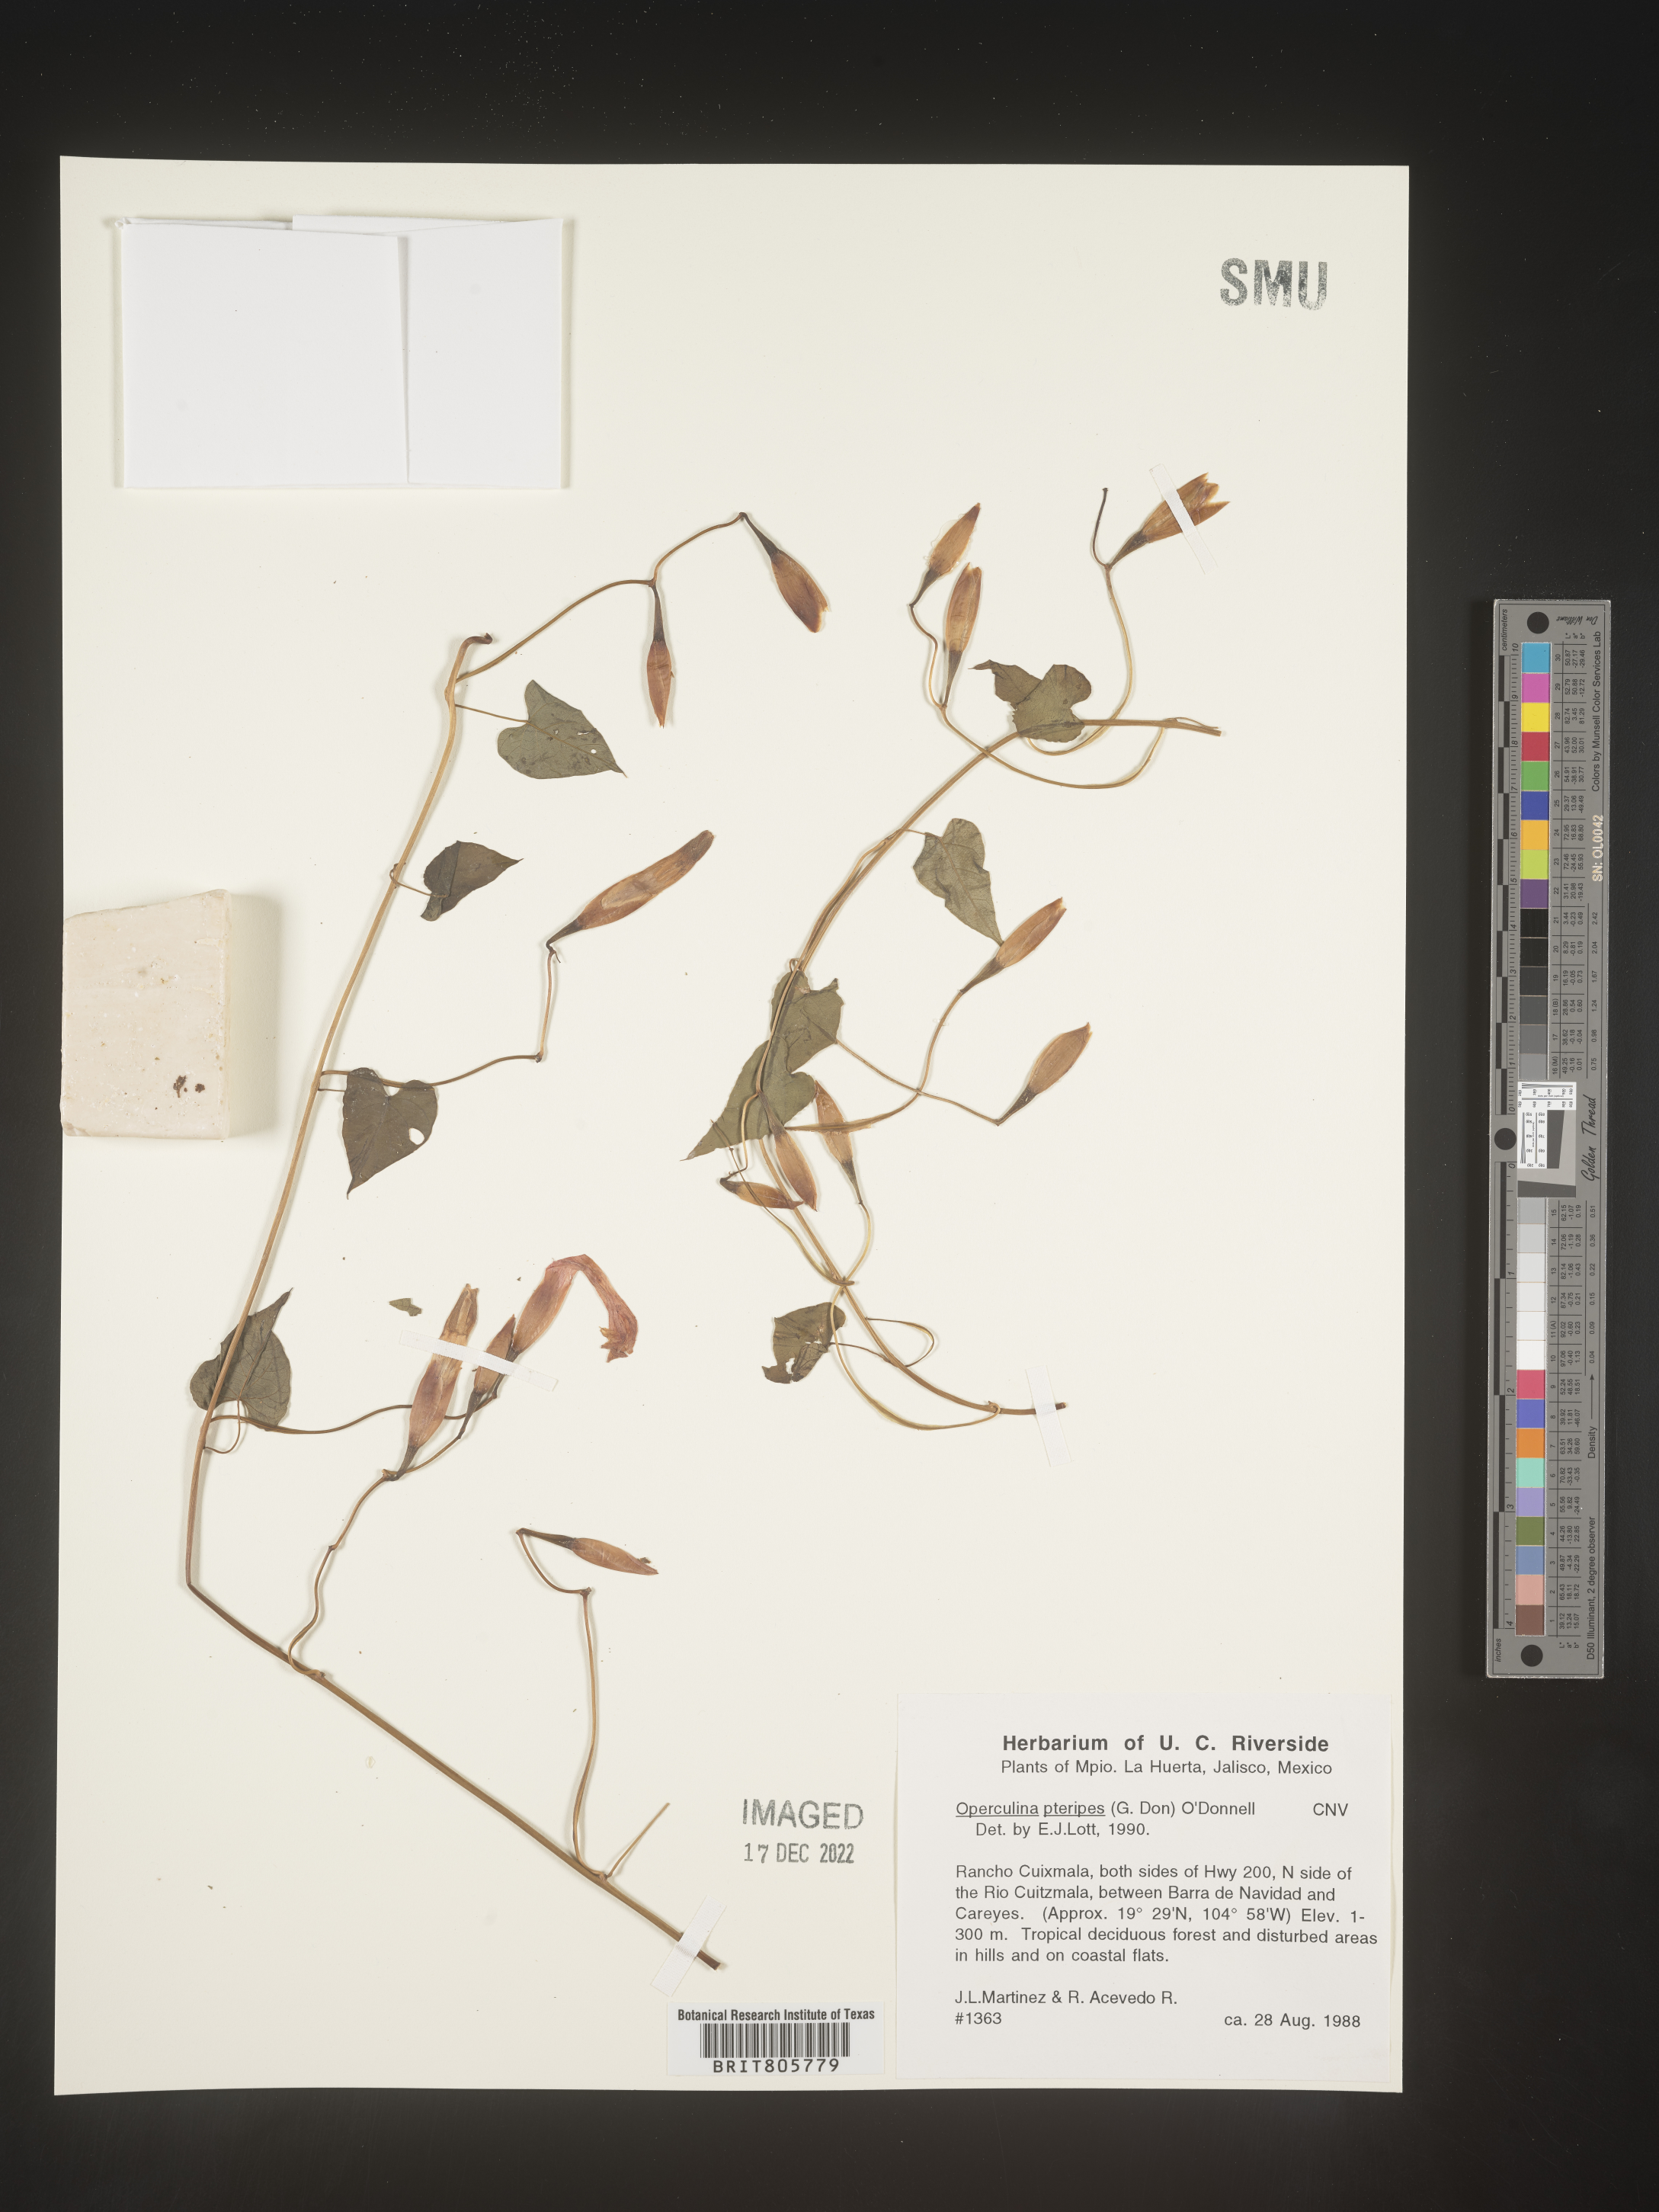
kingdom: Plantae
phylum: Tracheophyta
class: Magnoliopsida
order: Solanales
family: Convolvulaceae
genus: Operculina
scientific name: Operculina
